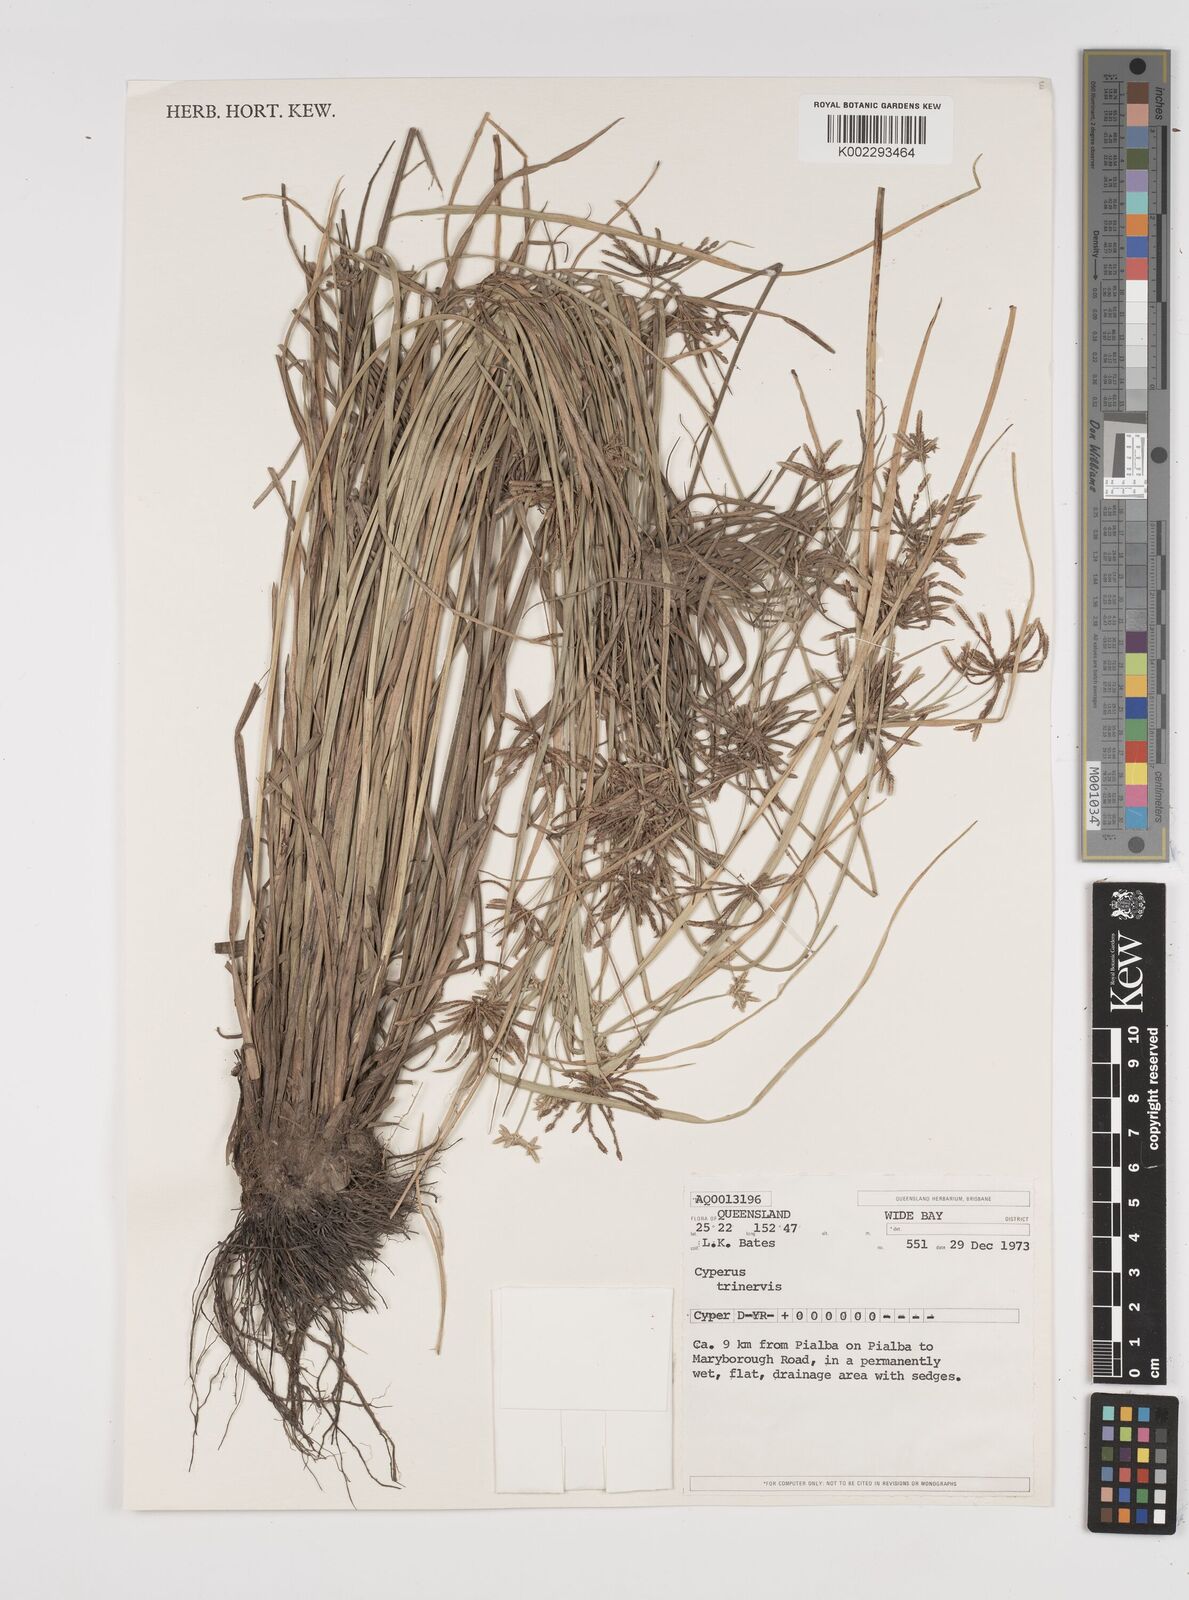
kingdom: Plantae
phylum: Tracheophyta
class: Liliopsida
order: Poales
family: Cyperaceae
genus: Cyperus
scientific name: Cyperus trinervis
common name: Australian flatsedge
